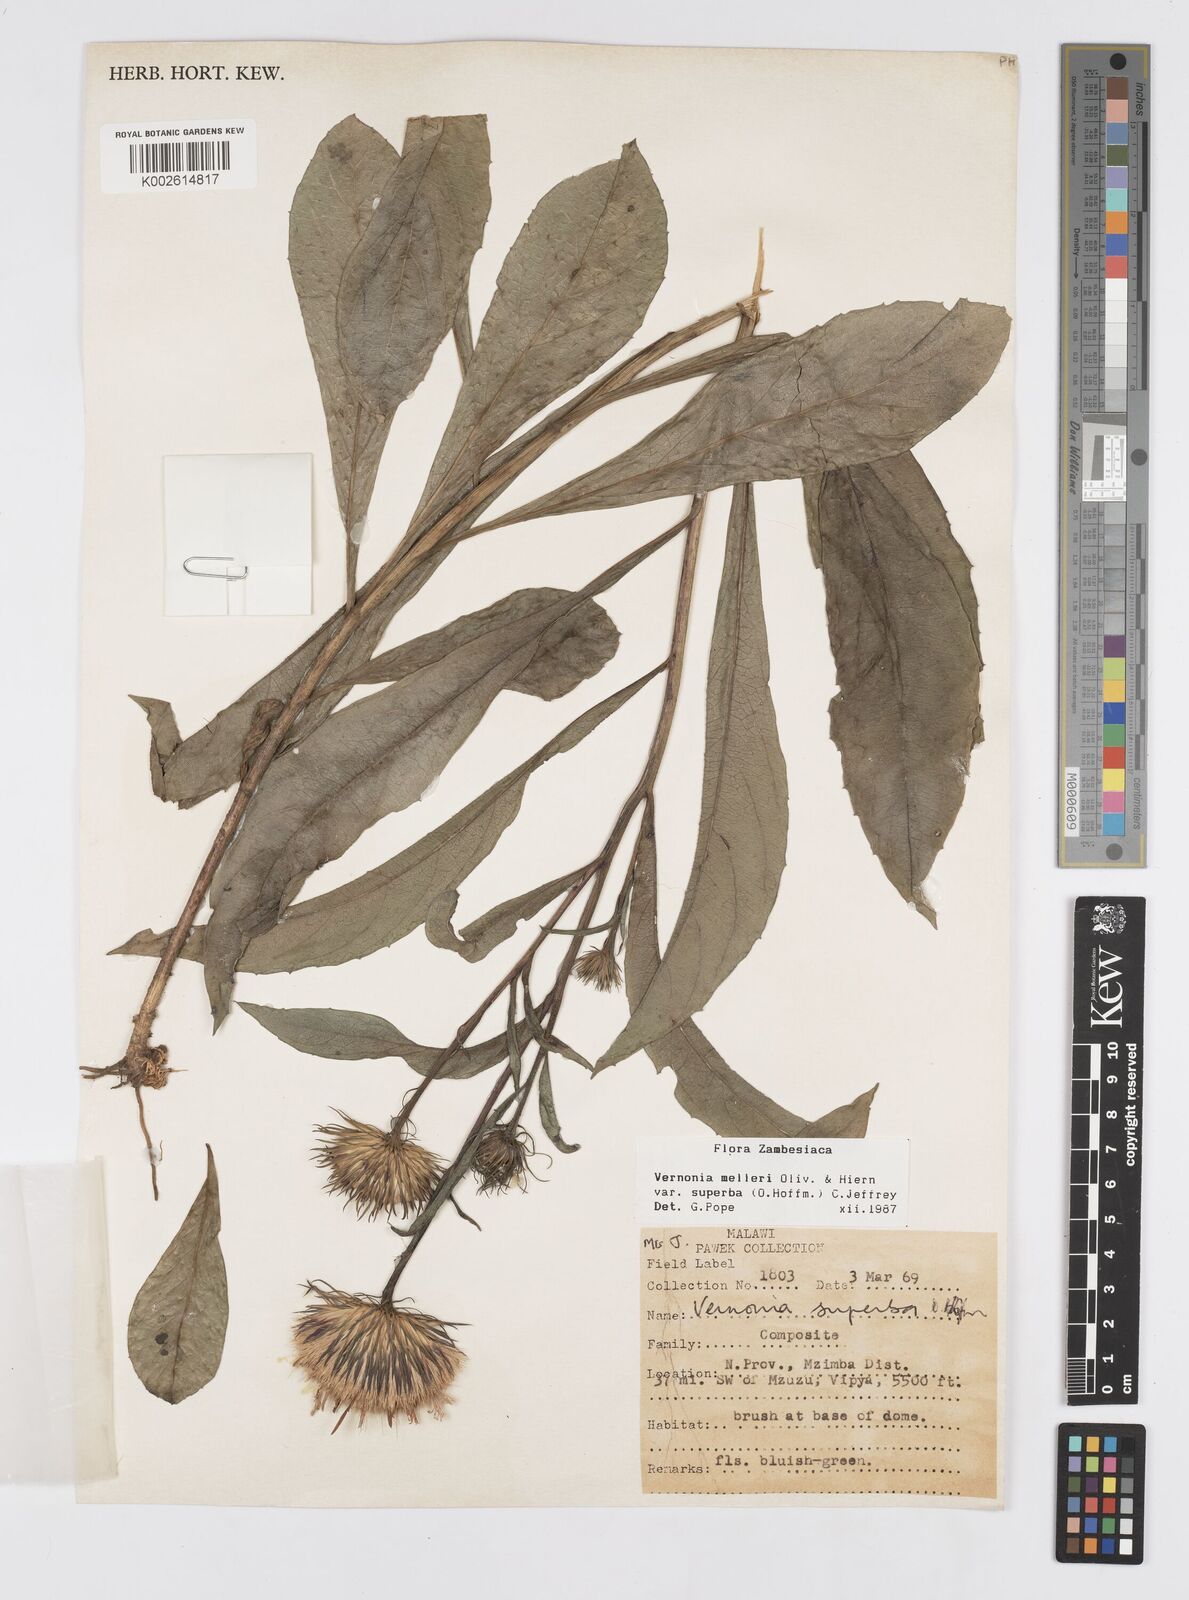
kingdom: Plantae
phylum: Tracheophyta
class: Magnoliopsida
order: Asterales
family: Asteraceae
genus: Linzia
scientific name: Linzia melleri
